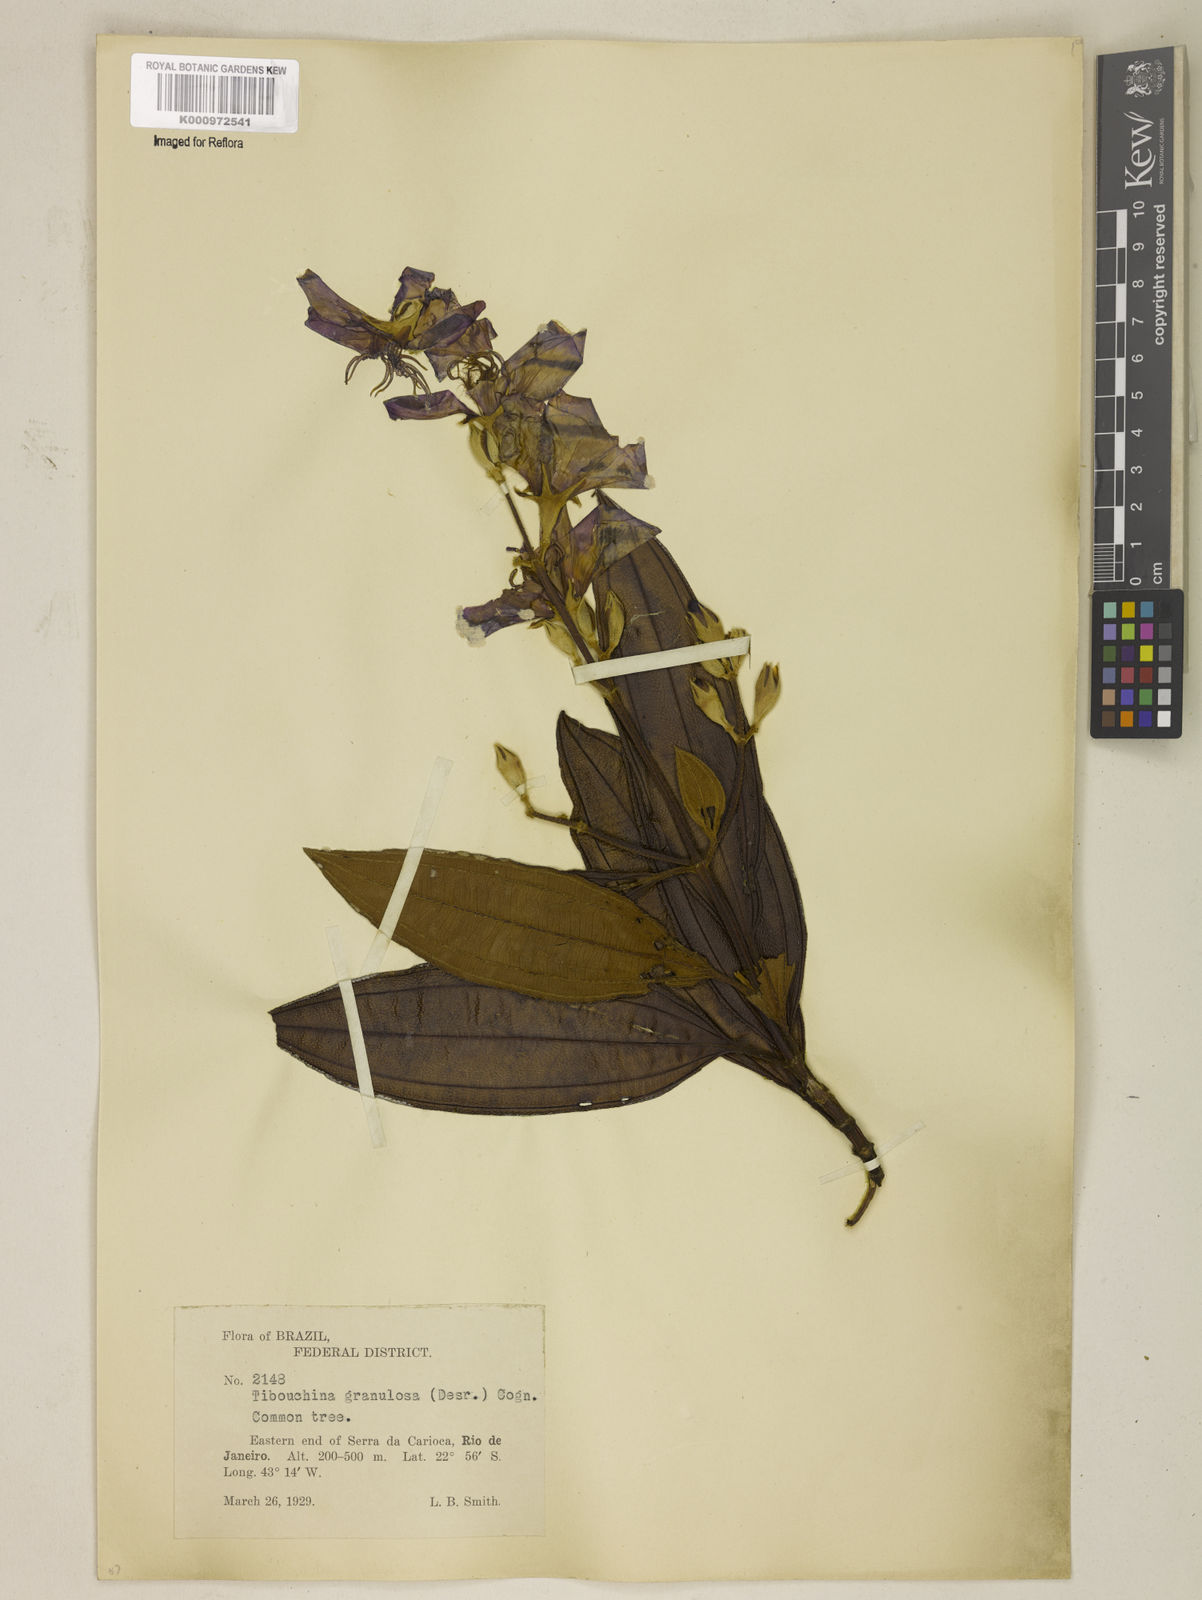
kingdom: Plantae
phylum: Tracheophyta
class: Magnoliopsida
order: Myrtales
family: Melastomataceae
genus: Pleroma
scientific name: Pleroma granulosum
